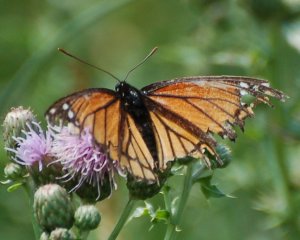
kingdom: Animalia
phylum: Arthropoda
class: Insecta
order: Lepidoptera
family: Nymphalidae
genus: Limenitis
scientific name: Limenitis archippus
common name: Viceroy
